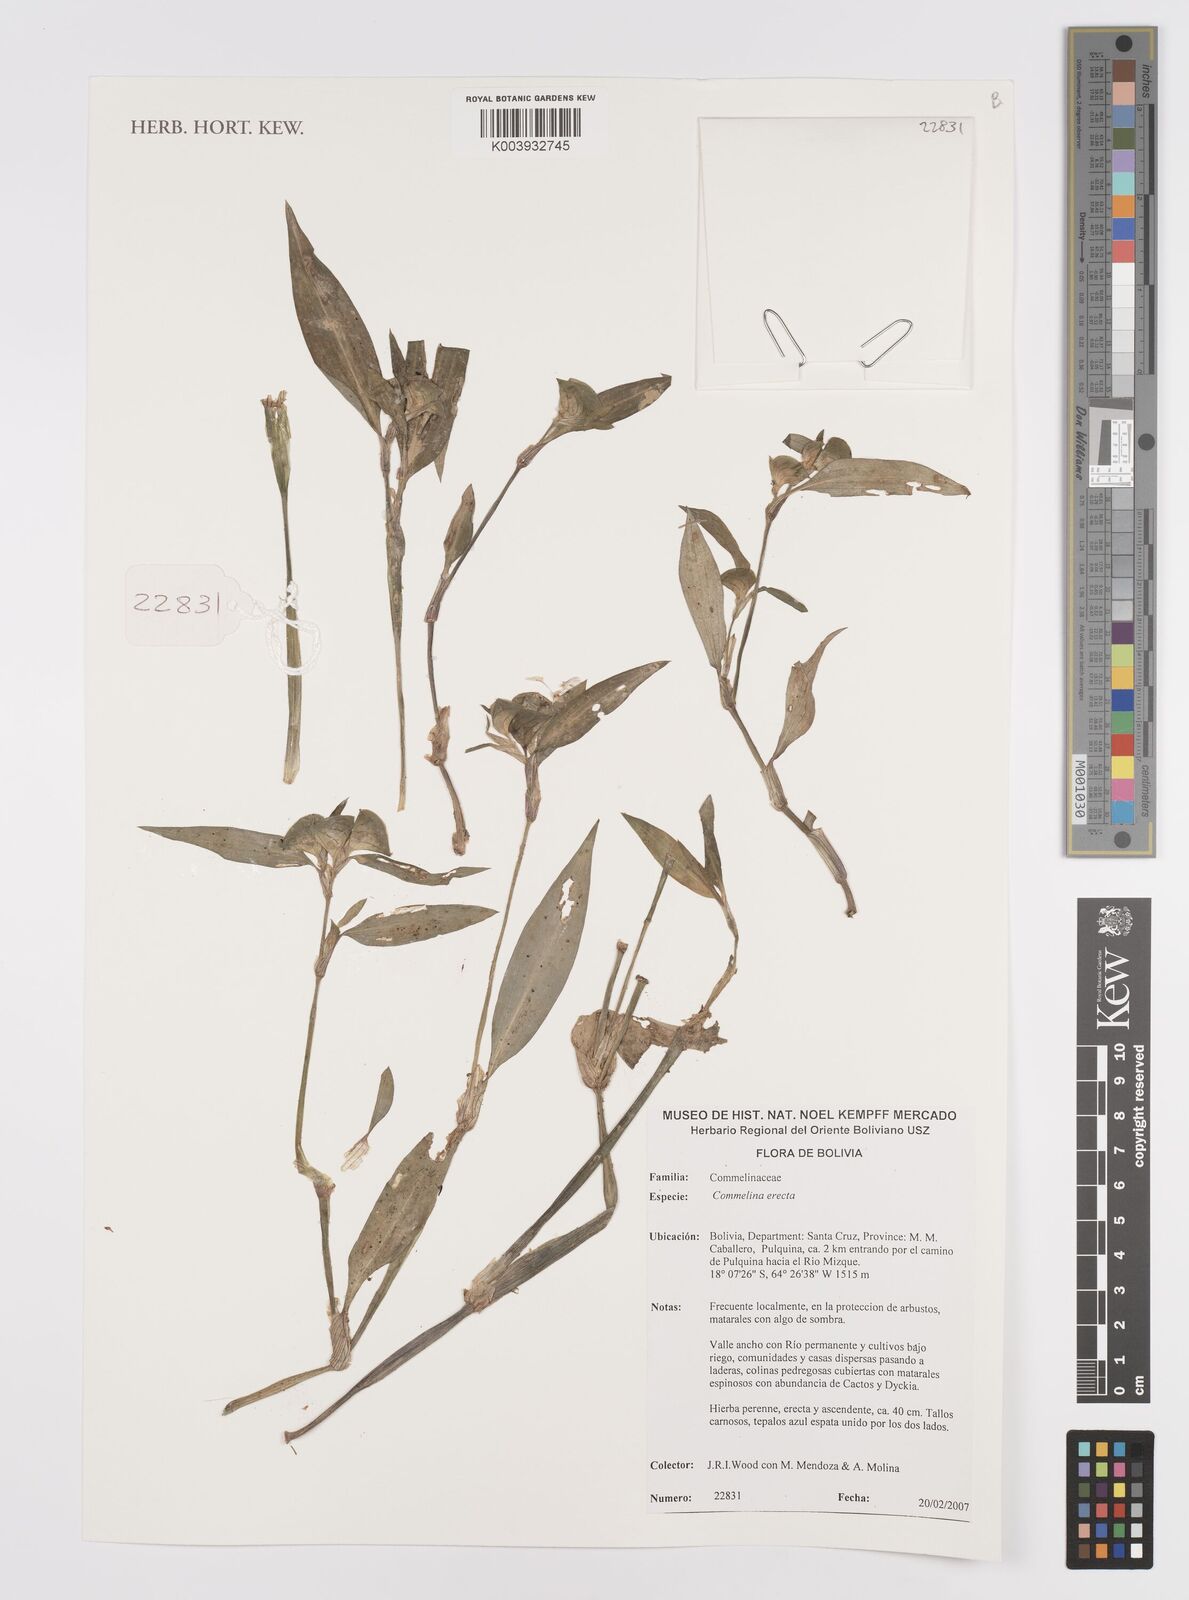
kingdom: Plantae
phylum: Tracheophyta
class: Liliopsida
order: Commelinales
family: Commelinaceae
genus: Commelina
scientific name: Commelina erecta
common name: Blousel blommetjie
